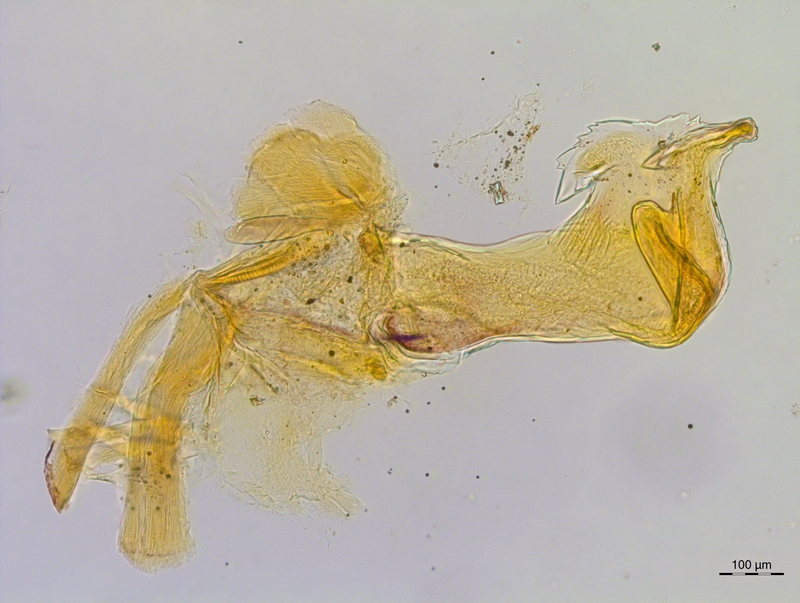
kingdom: Animalia
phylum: Arthropoda
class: Diplopoda
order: Chordeumatida
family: Craspedosomatidae
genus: Craspedosoma
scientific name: Craspedosoma rawlinsii
